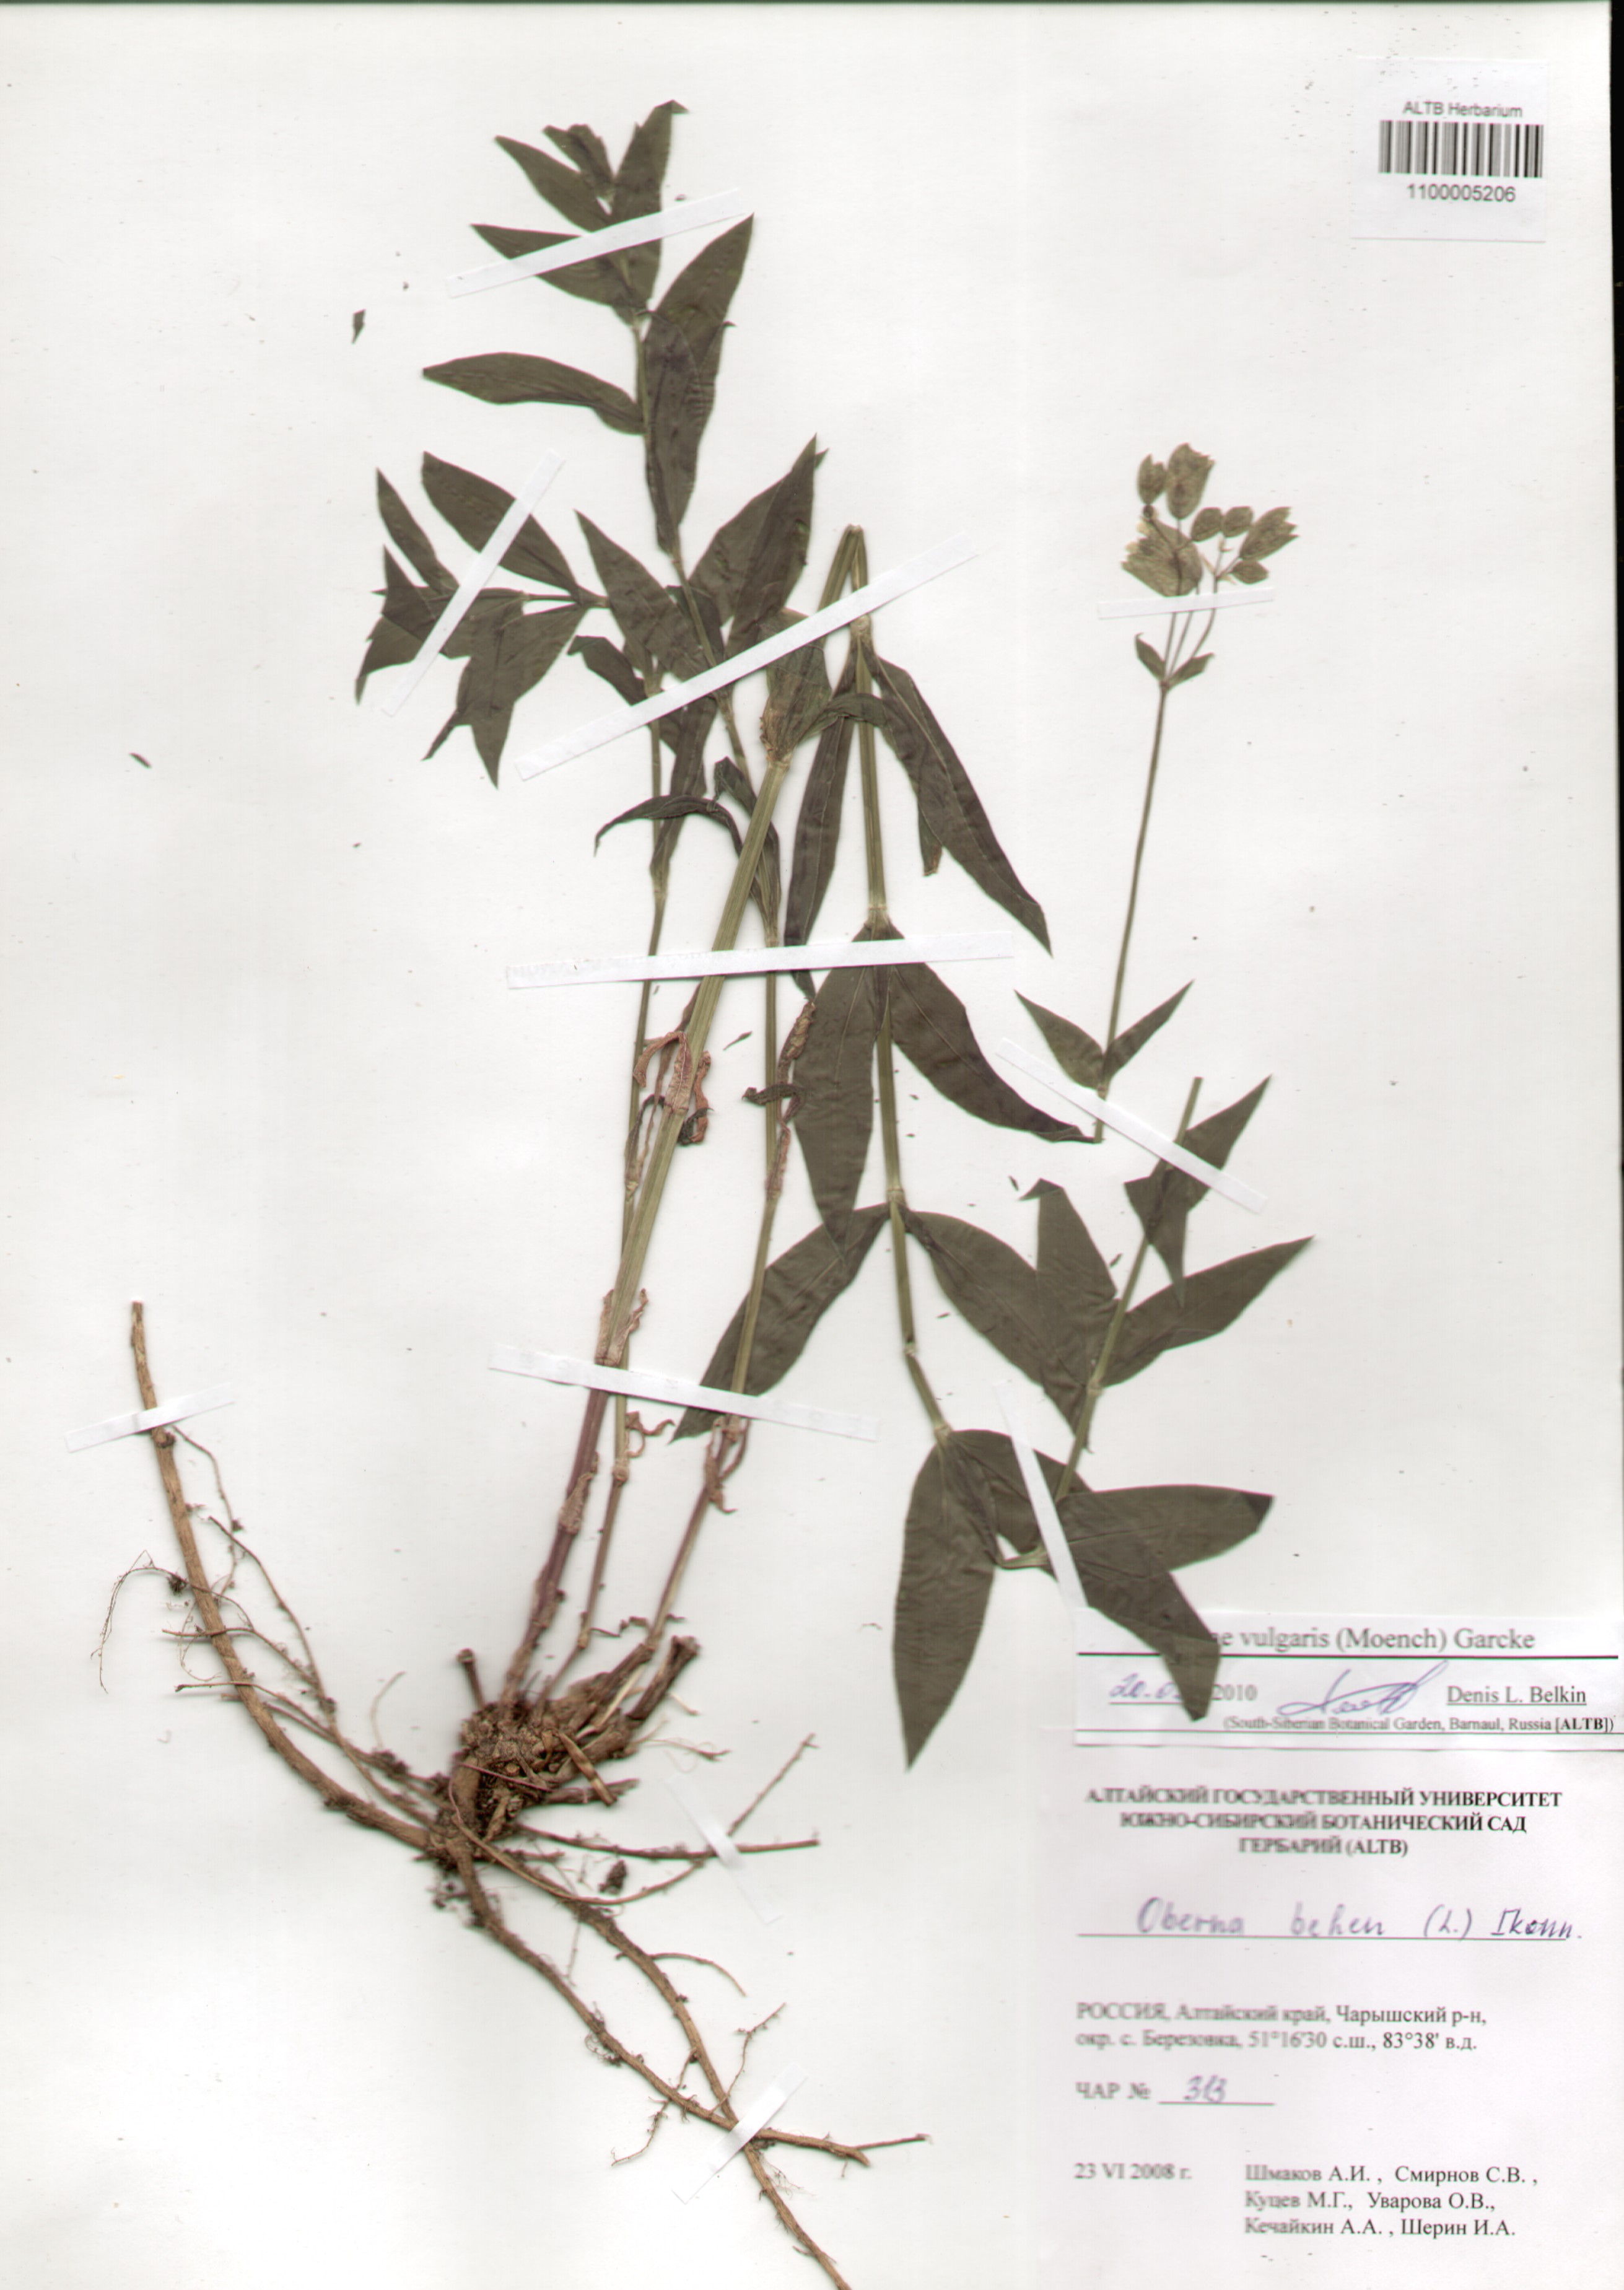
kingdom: Plantae
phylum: Tracheophyta
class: Magnoliopsida
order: Caryophyllales
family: Caryophyllaceae
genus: Silene
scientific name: Silene vulgaris
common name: Bladder campion
